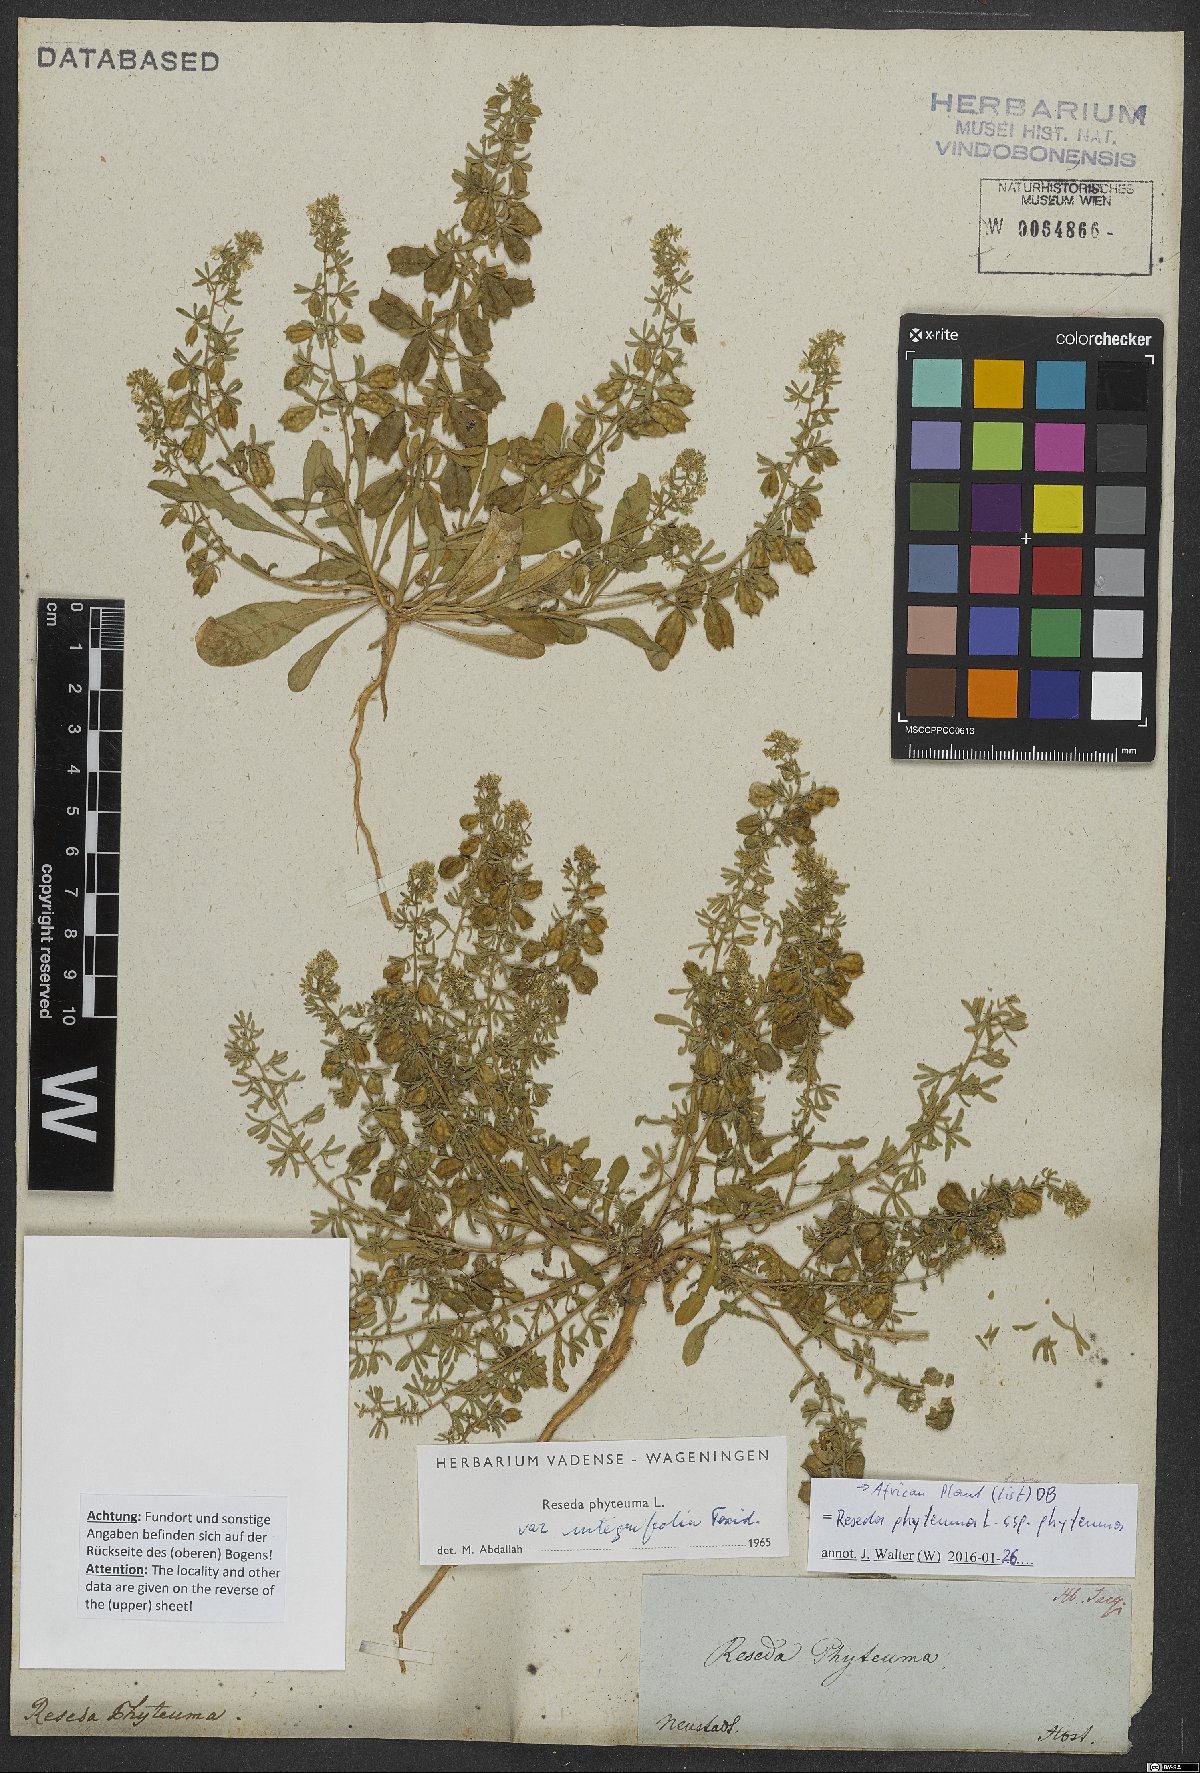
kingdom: Plantae
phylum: Tracheophyta
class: Magnoliopsida
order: Brassicales
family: Resedaceae
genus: Reseda
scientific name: Reseda phyteuma
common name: Corn mignonette
